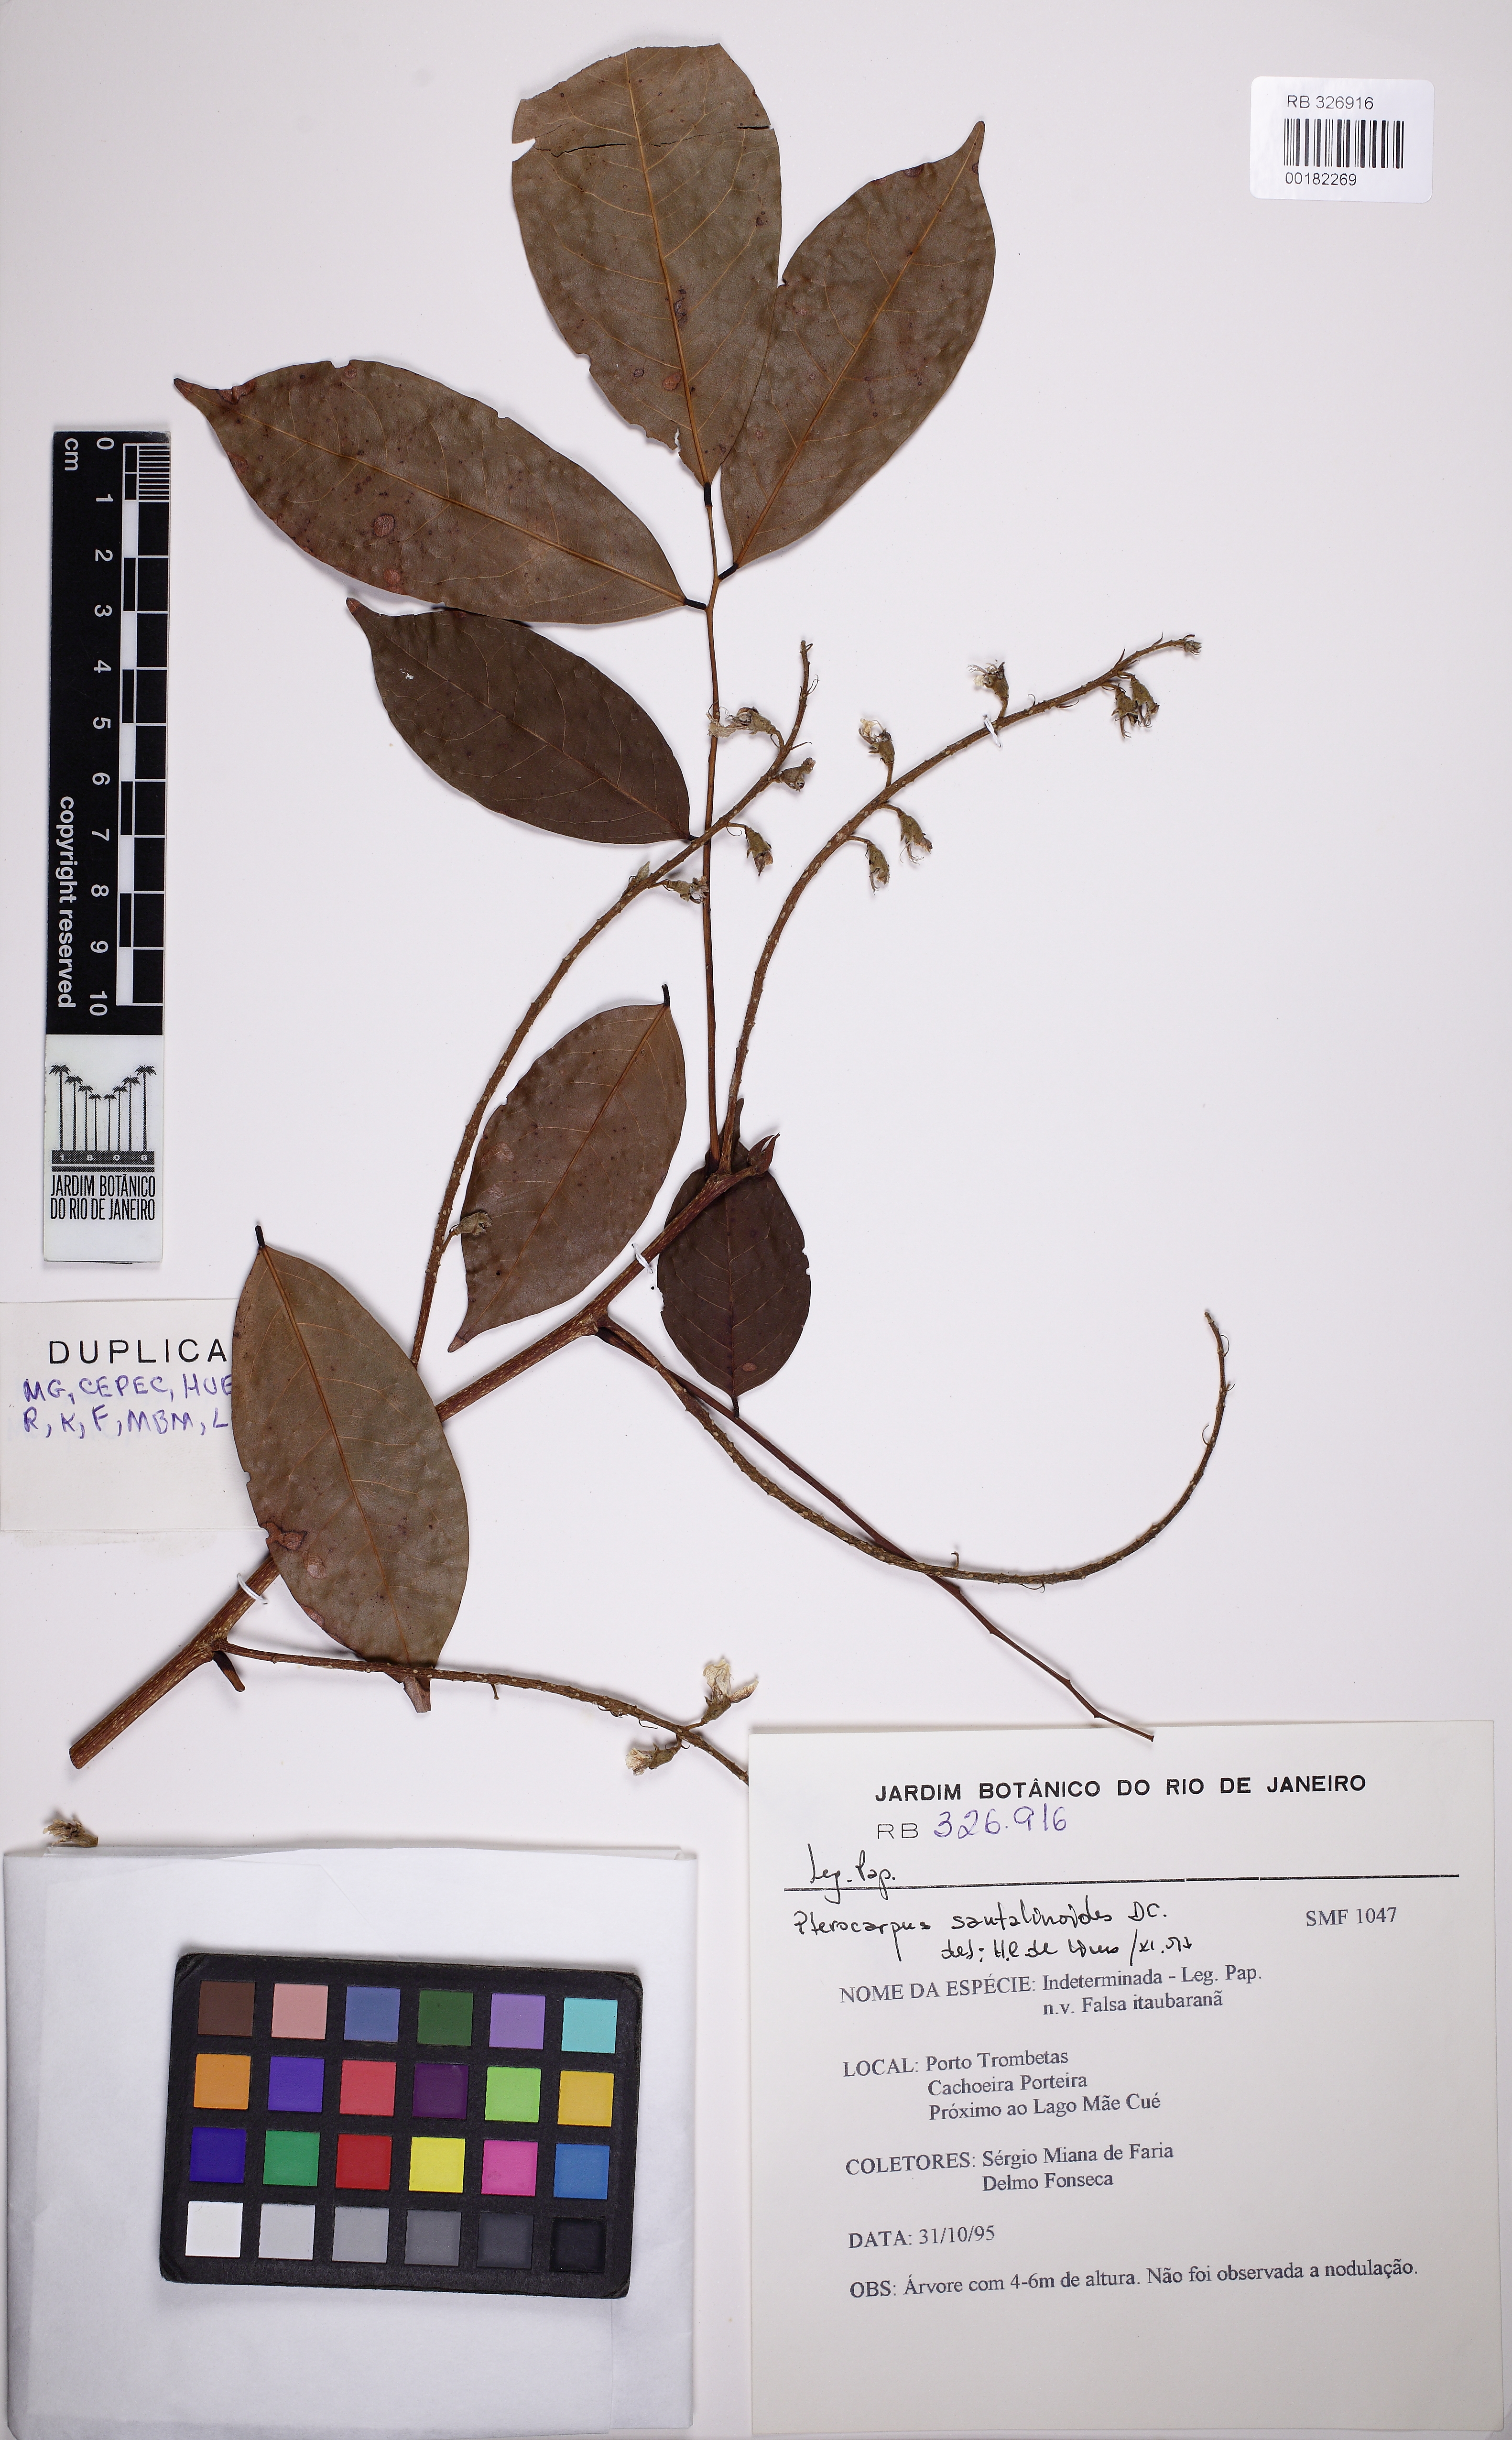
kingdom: Plantae
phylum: Tracheophyta
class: Magnoliopsida
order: Fabales
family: Fabaceae
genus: Pterocarpus
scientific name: Pterocarpus santalinoides
